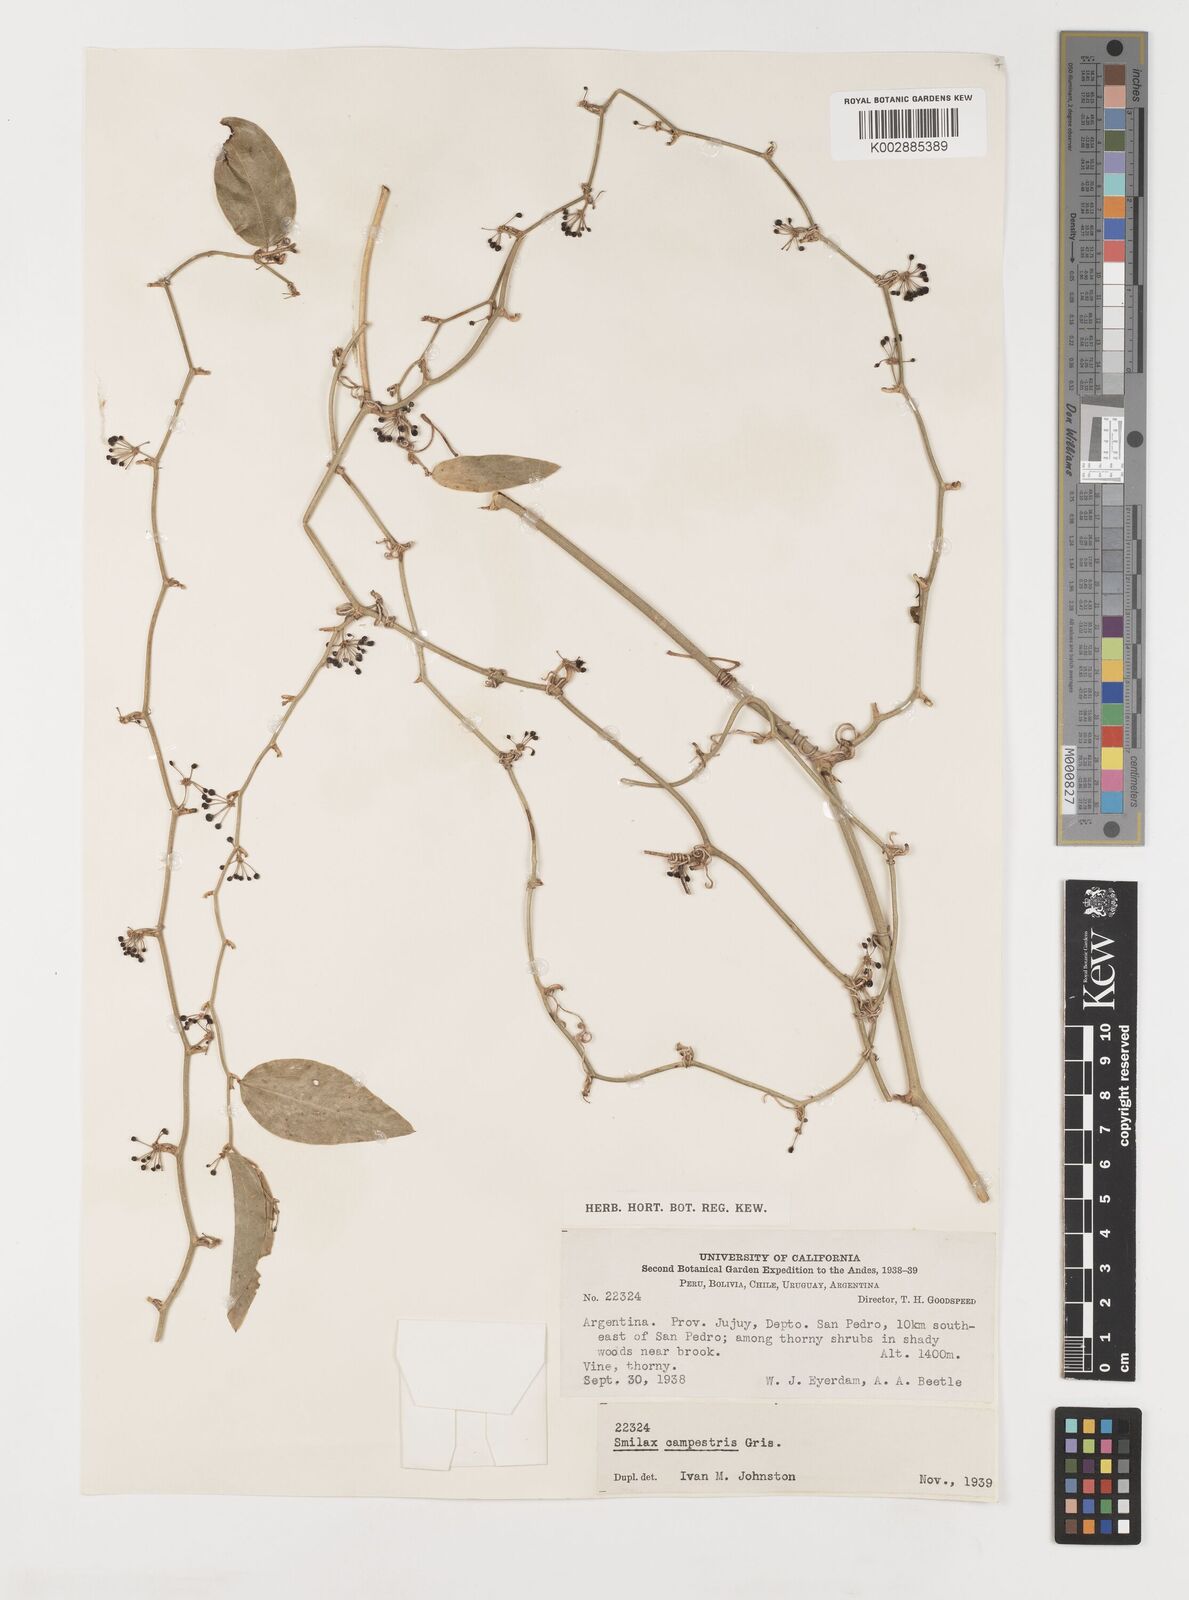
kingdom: Plantae
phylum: Tracheophyta
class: Liliopsida
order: Liliales
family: Smilacaceae
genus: Smilax
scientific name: Smilax campestris
